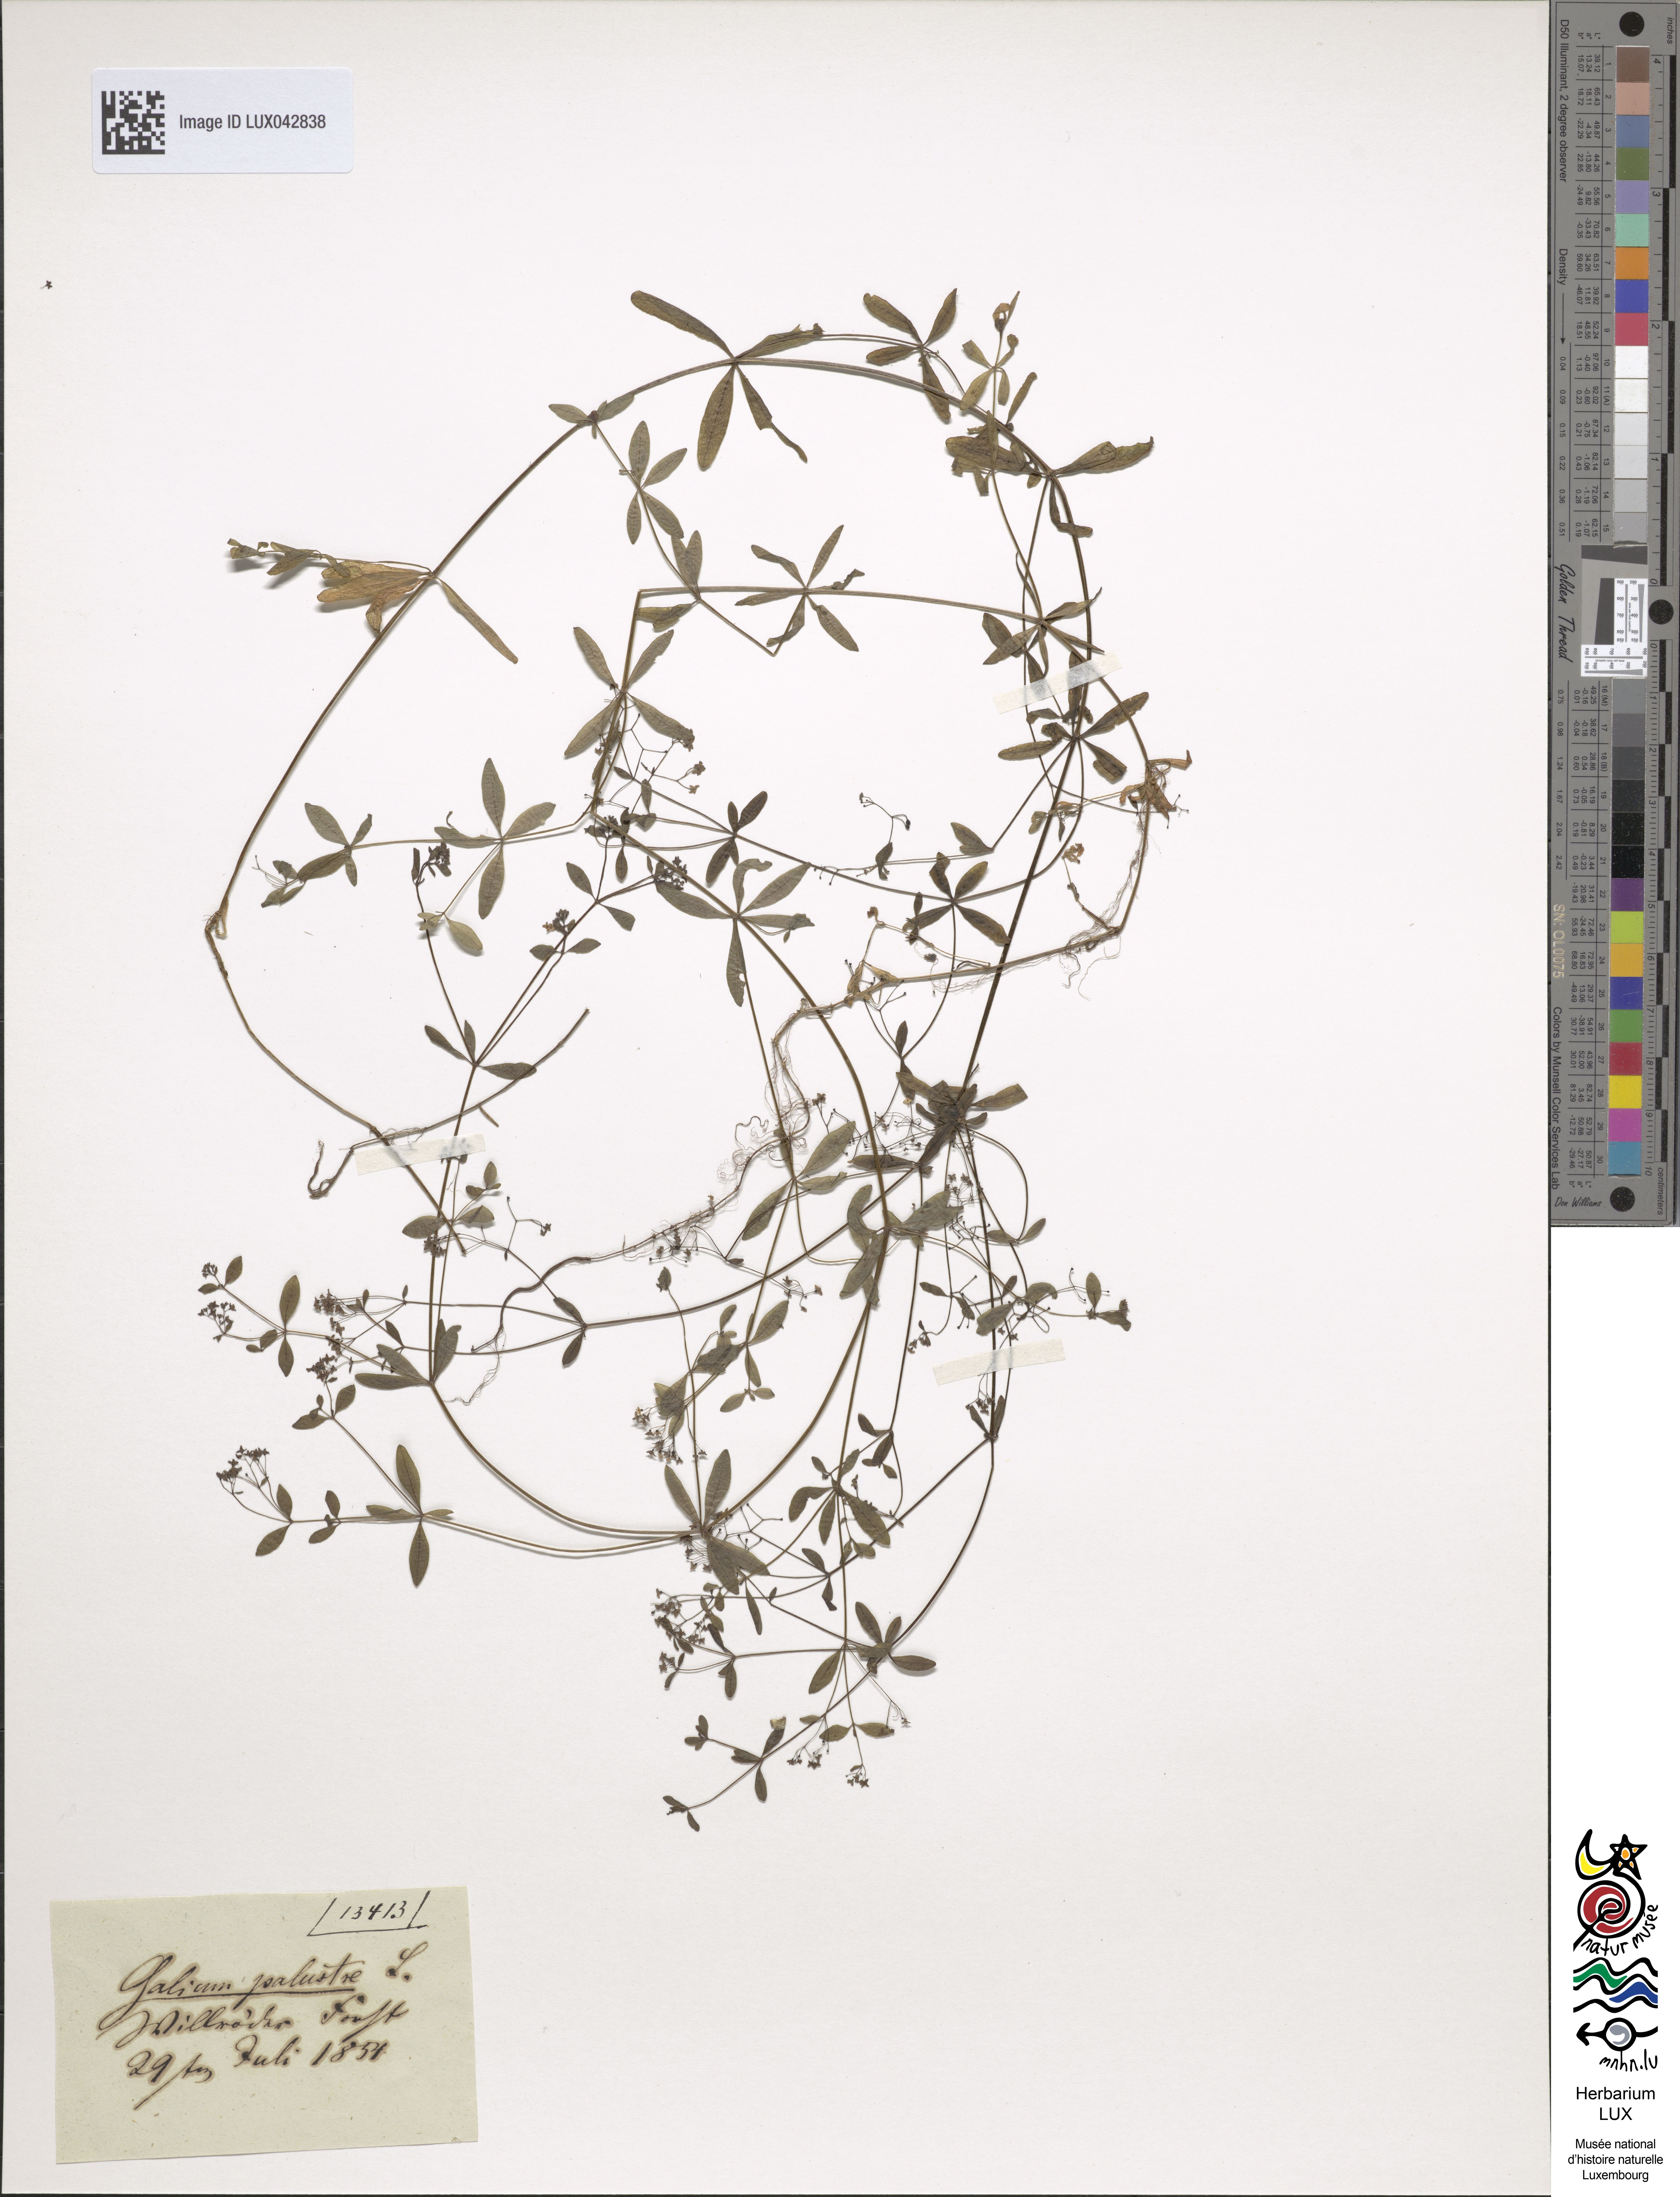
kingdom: Plantae
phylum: Tracheophyta
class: Magnoliopsida
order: Gentianales
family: Rubiaceae
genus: Galium
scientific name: Galium palustre
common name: Common marsh-bedstraw
